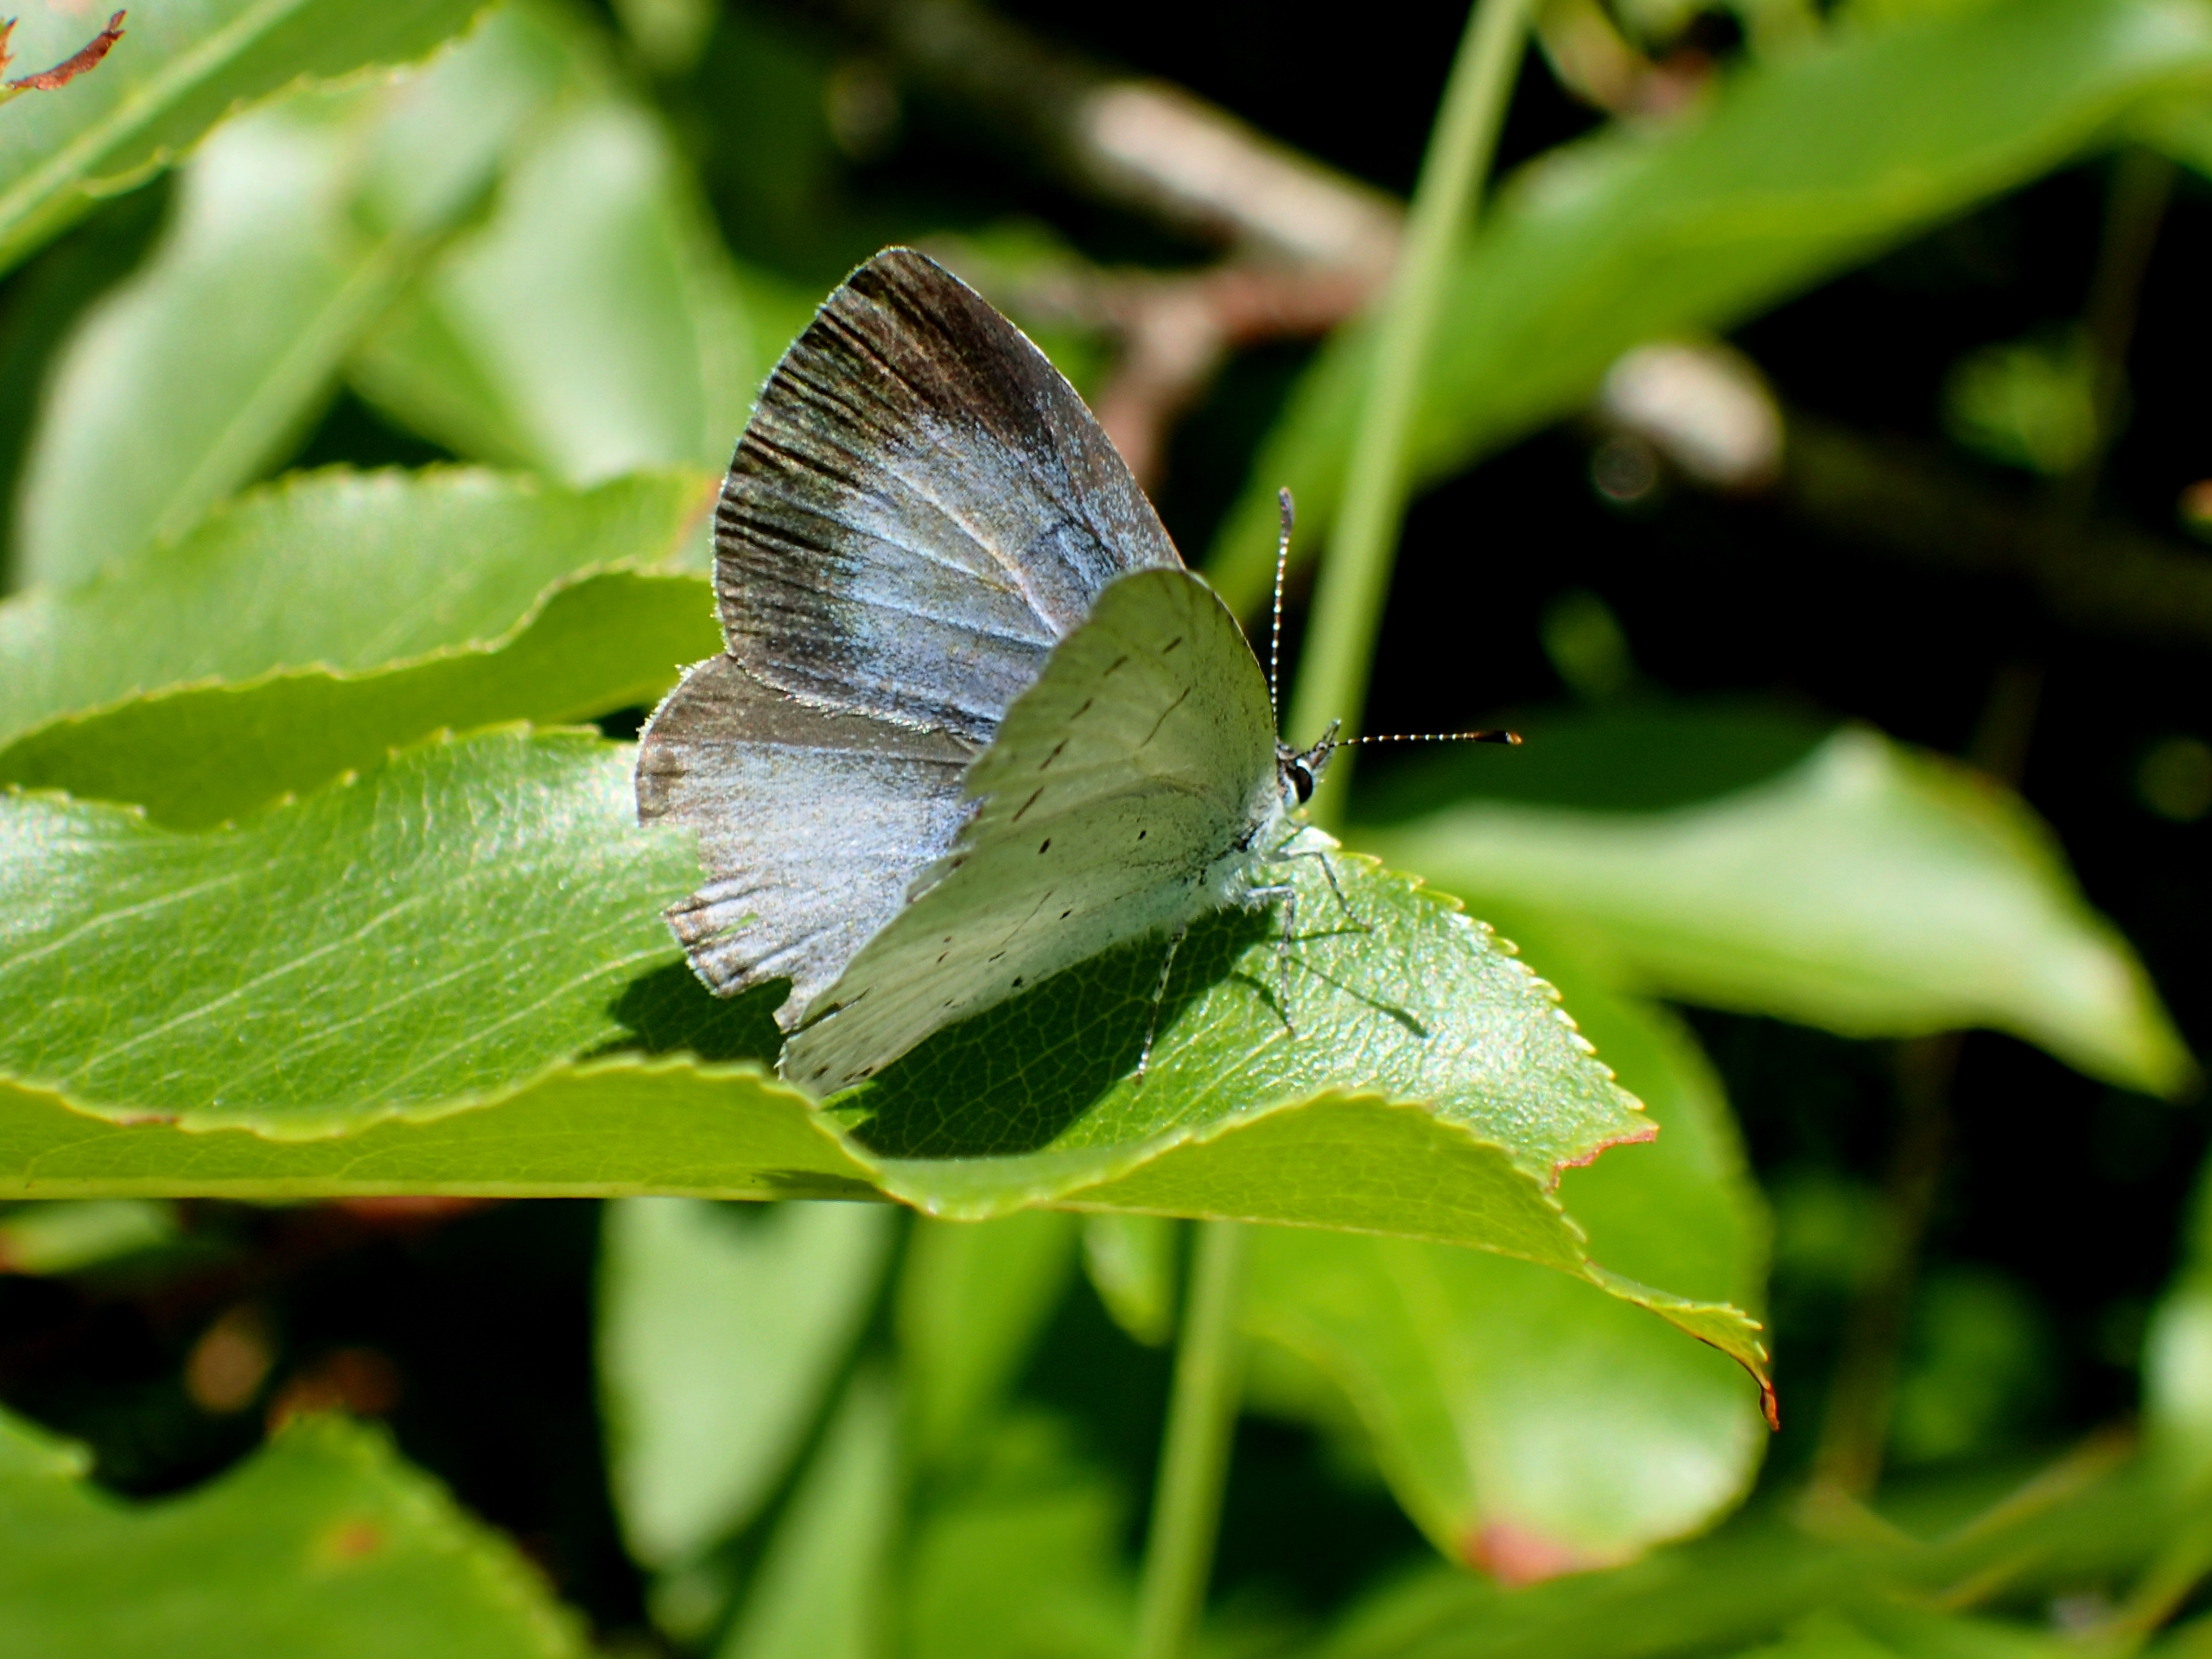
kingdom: Animalia
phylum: Arthropoda
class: Insecta
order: Lepidoptera
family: Lycaenidae
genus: Celastrina
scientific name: Celastrina argiolus
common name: Skovblåfugl
